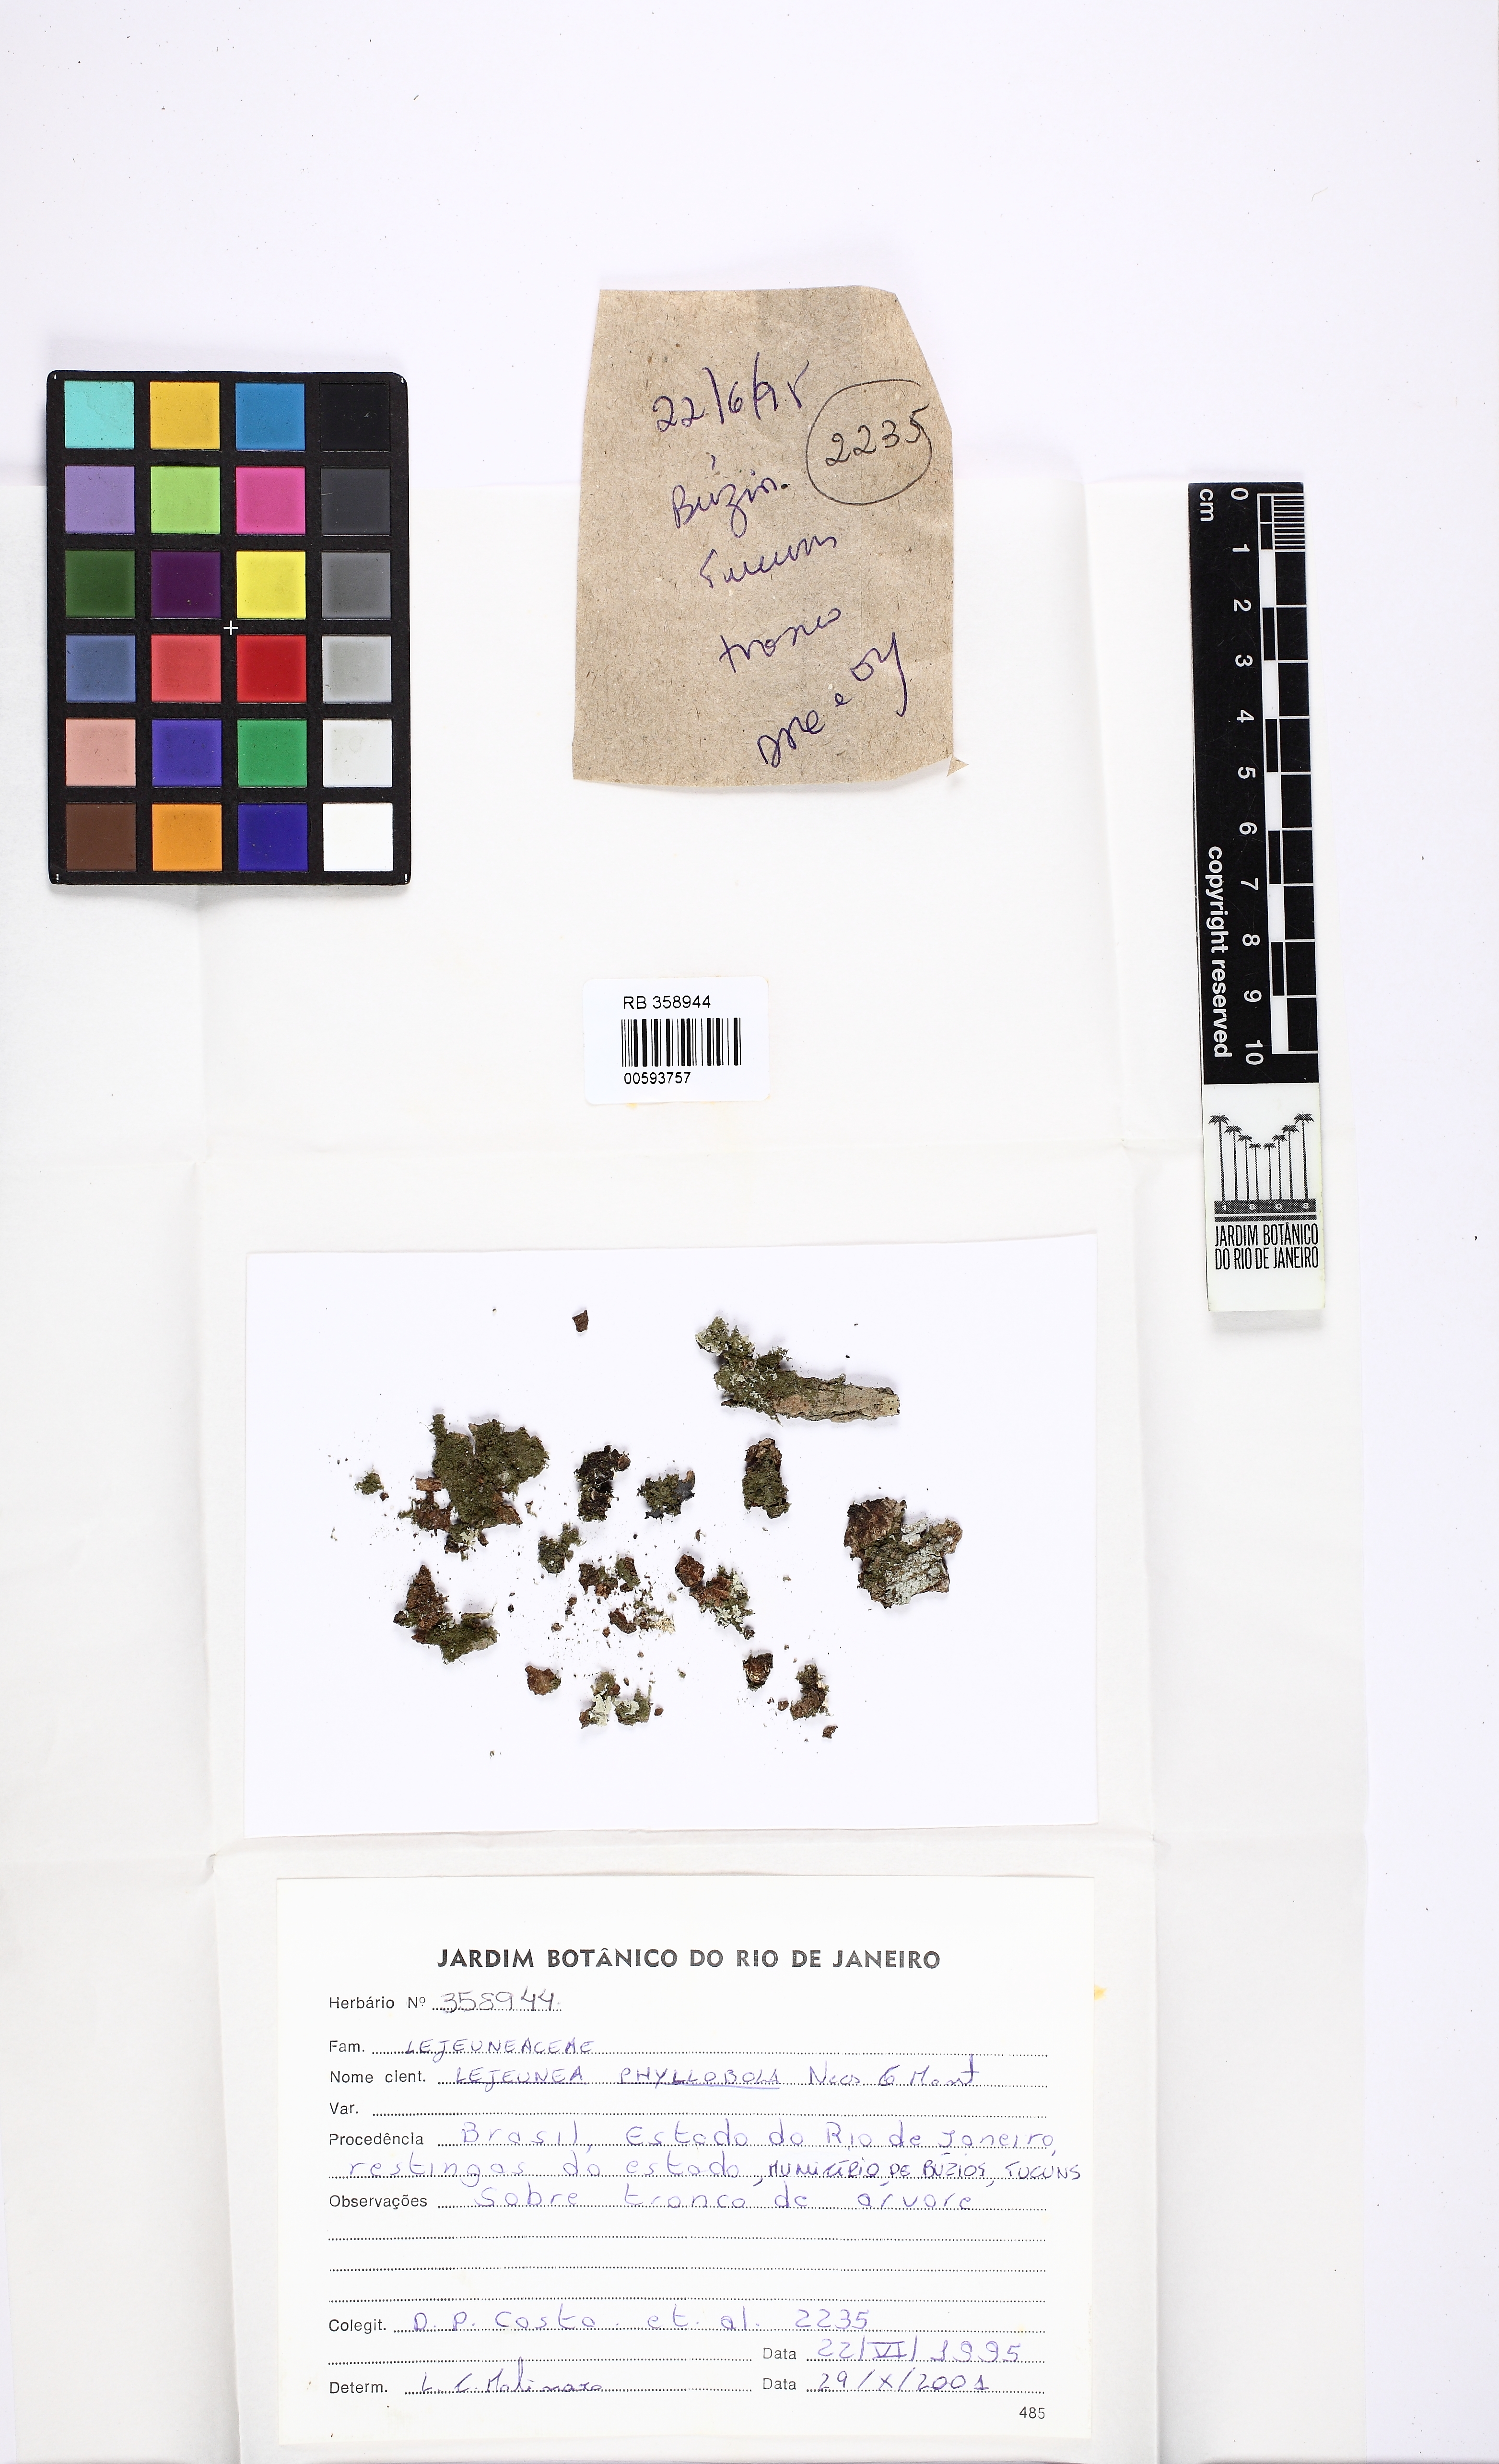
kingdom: Plantae
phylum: Marchantiophyta
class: Jungermanniopsida
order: Porellales
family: Lejeuneaceae
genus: Lejeunea
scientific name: Lejeunea phyllobola
